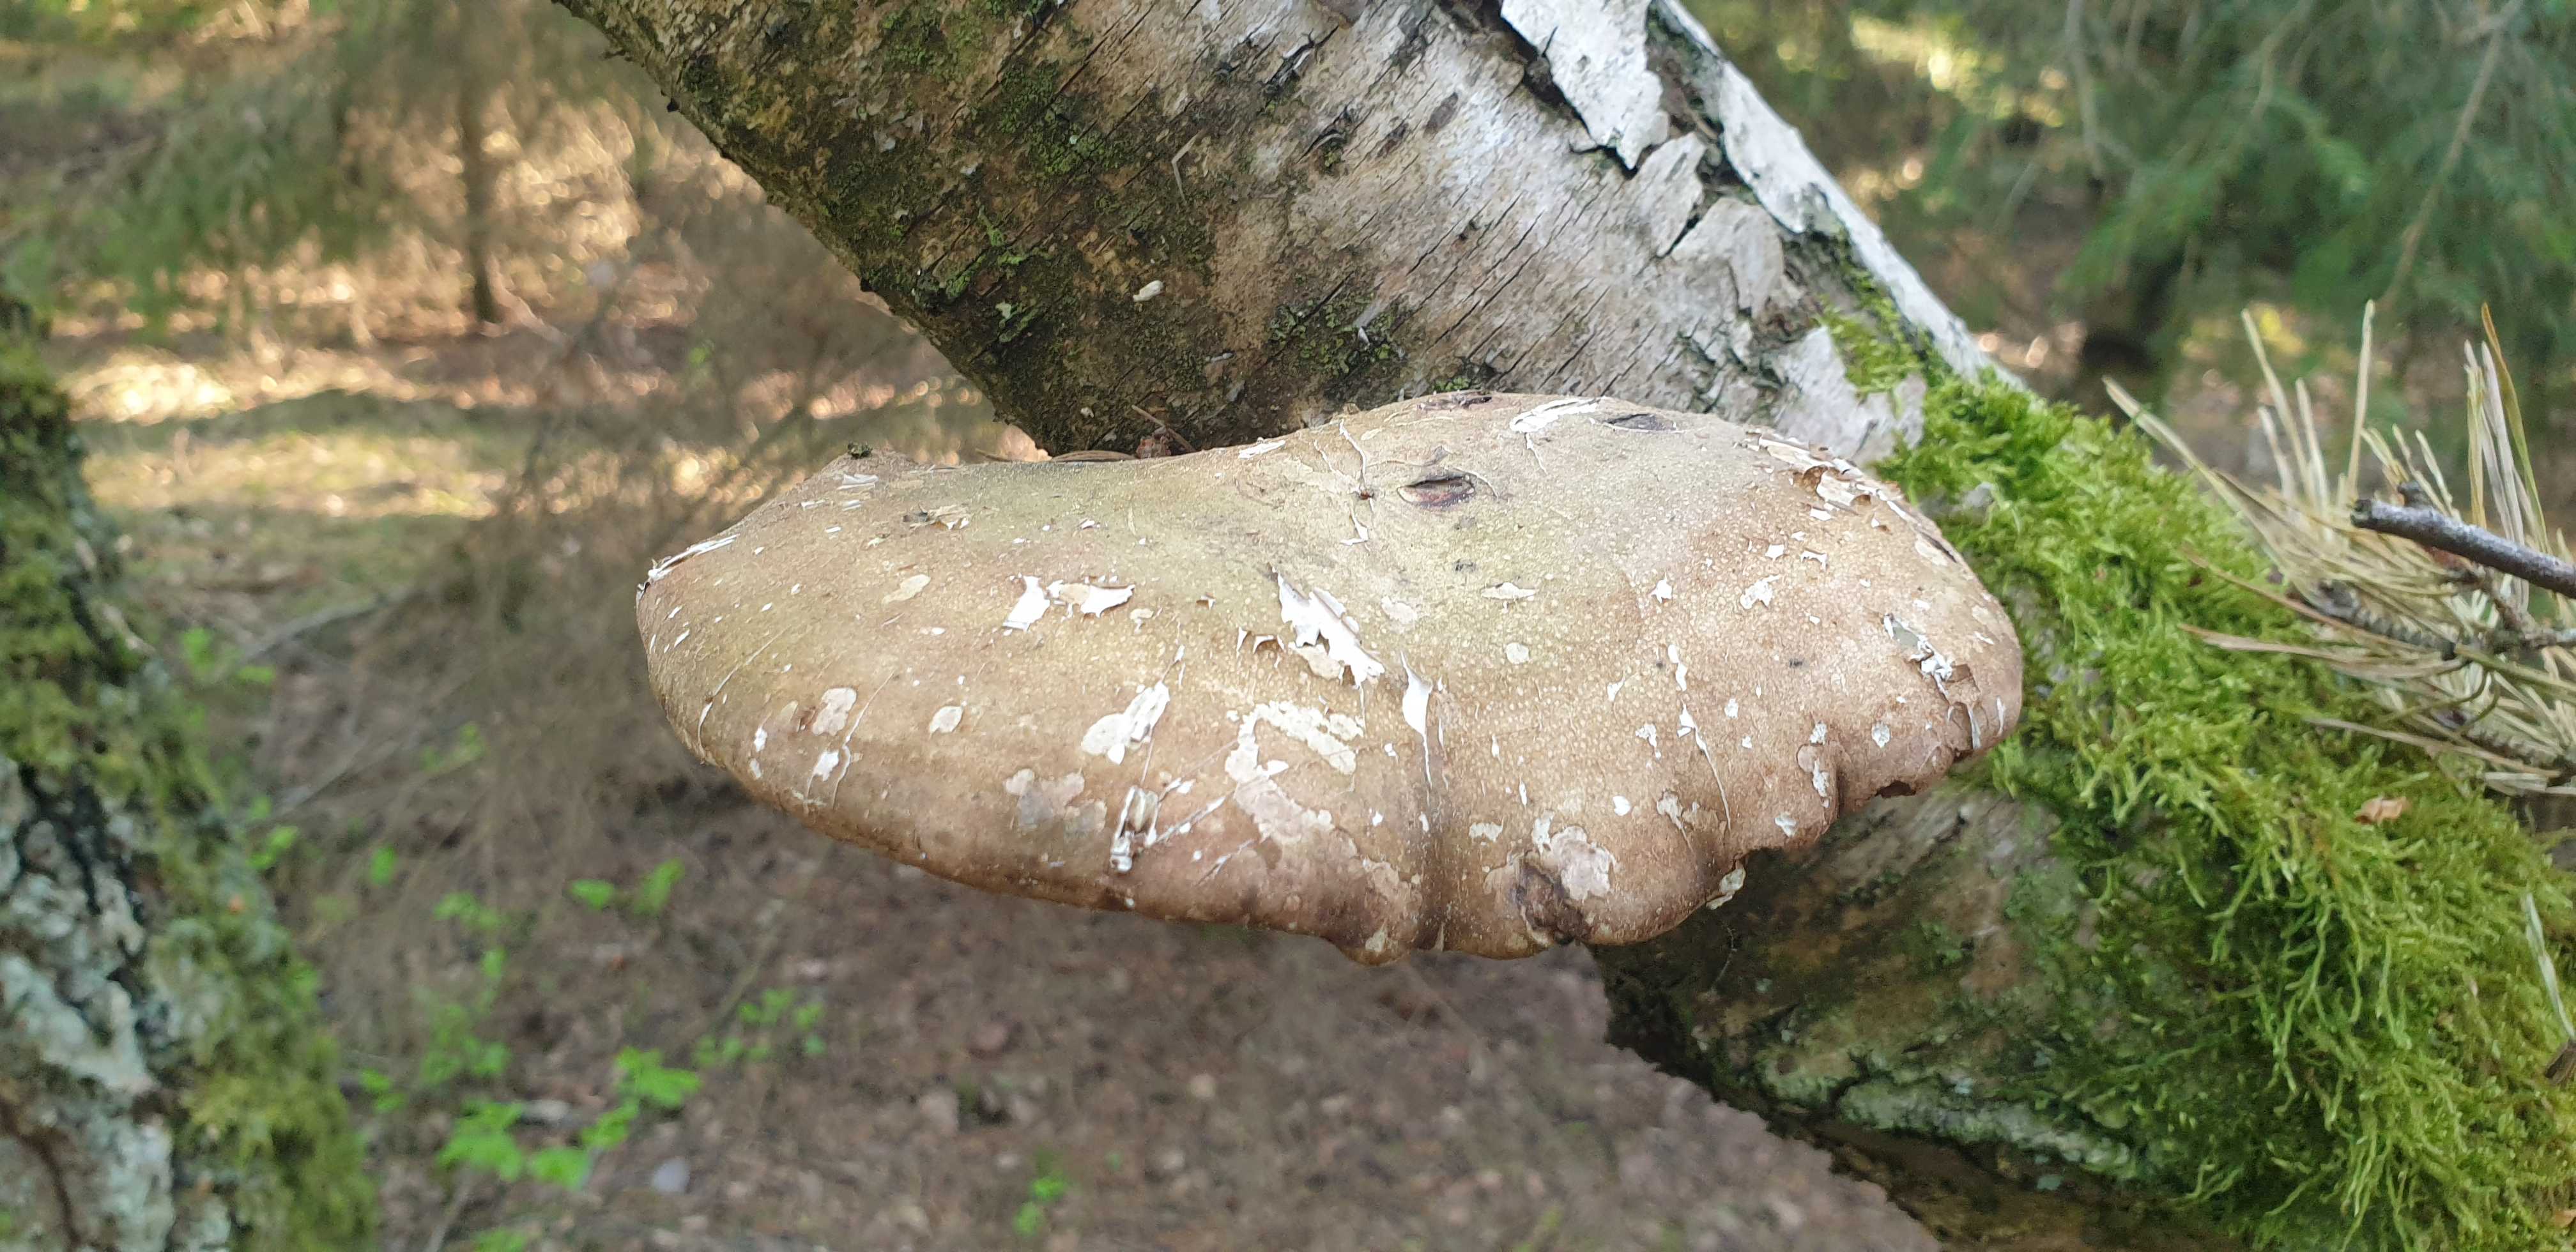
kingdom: Fungi
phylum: Basidiomycota
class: Agaricomycetes
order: Polyporales
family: Fomitopsidaceae
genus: Fomitopsis
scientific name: Fomitopsis betulina
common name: birkeporesvamp
